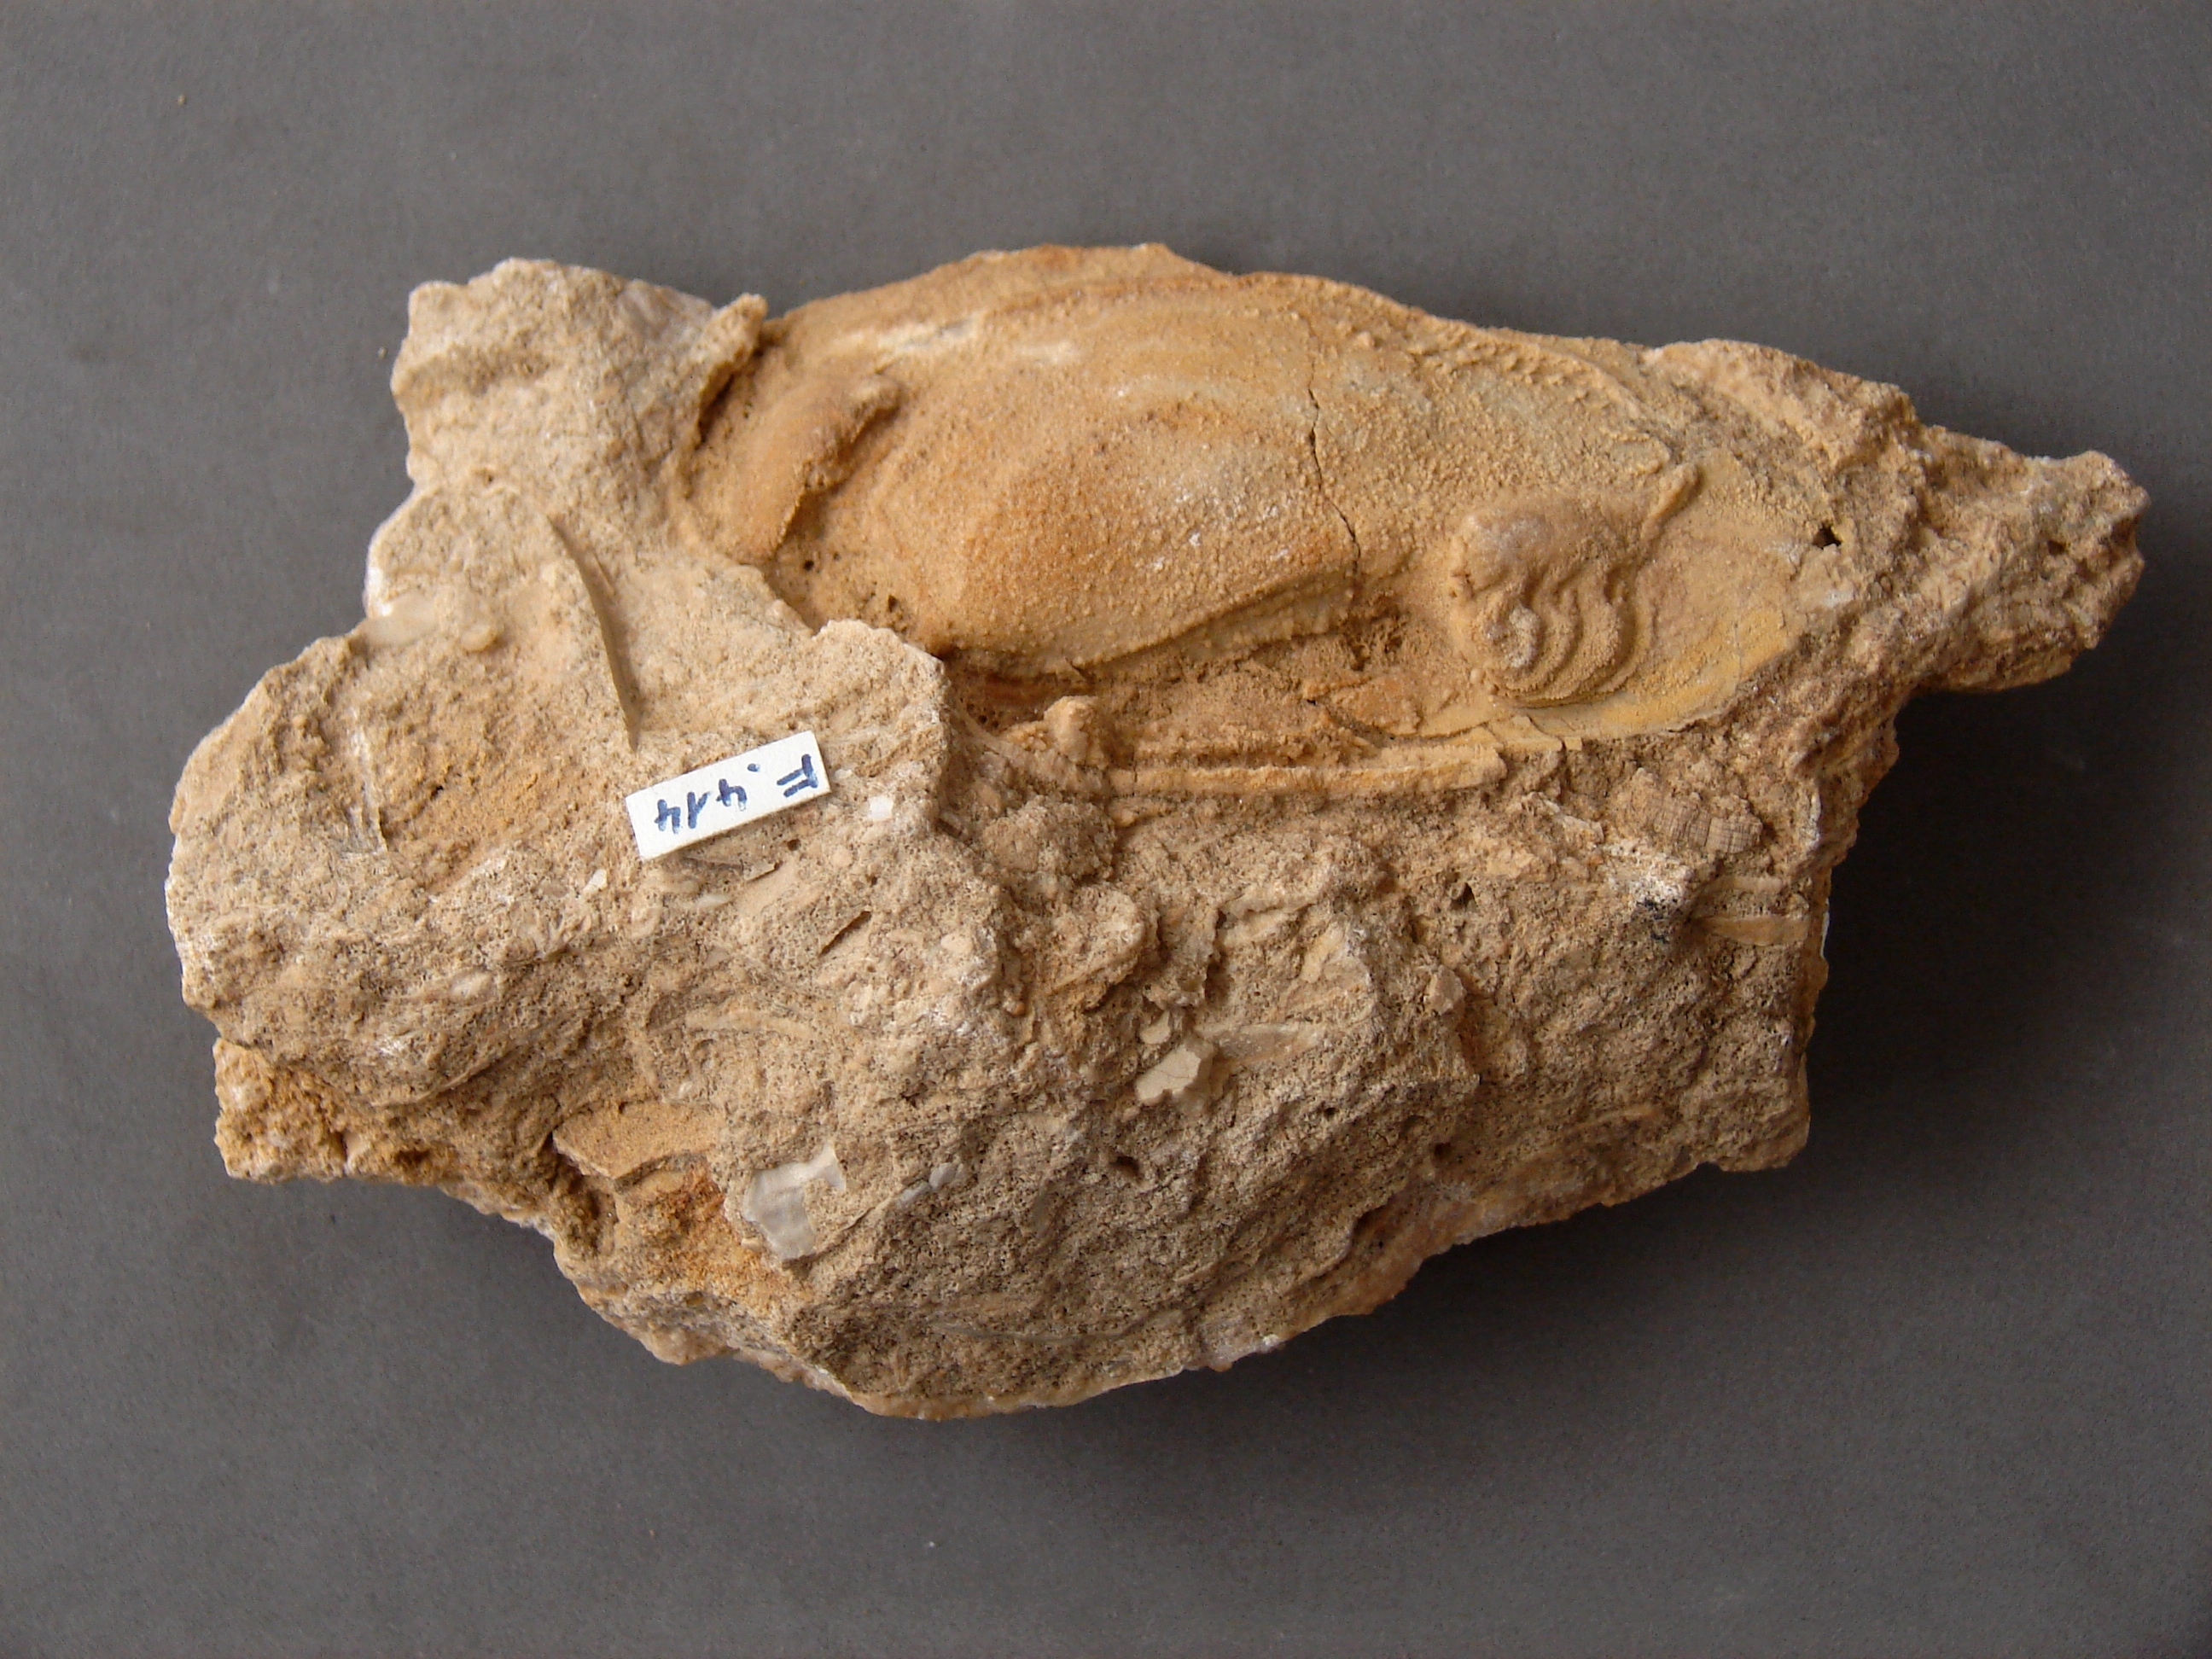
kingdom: Animalia
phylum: Mollusca
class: Bivalvia
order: Carditida
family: Cardiniidae
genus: Cardinia
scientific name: Cardinia
